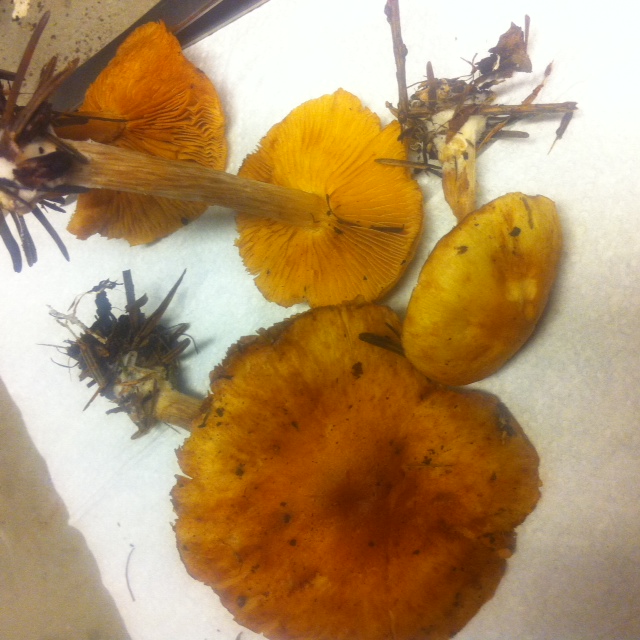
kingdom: Fungi
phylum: Basidiomycota
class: Agaricomycetes
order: Agaricales
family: Hymenogastraceae
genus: Gymnopilus
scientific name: Gymnopilus penetrans
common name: plettet flammehat
